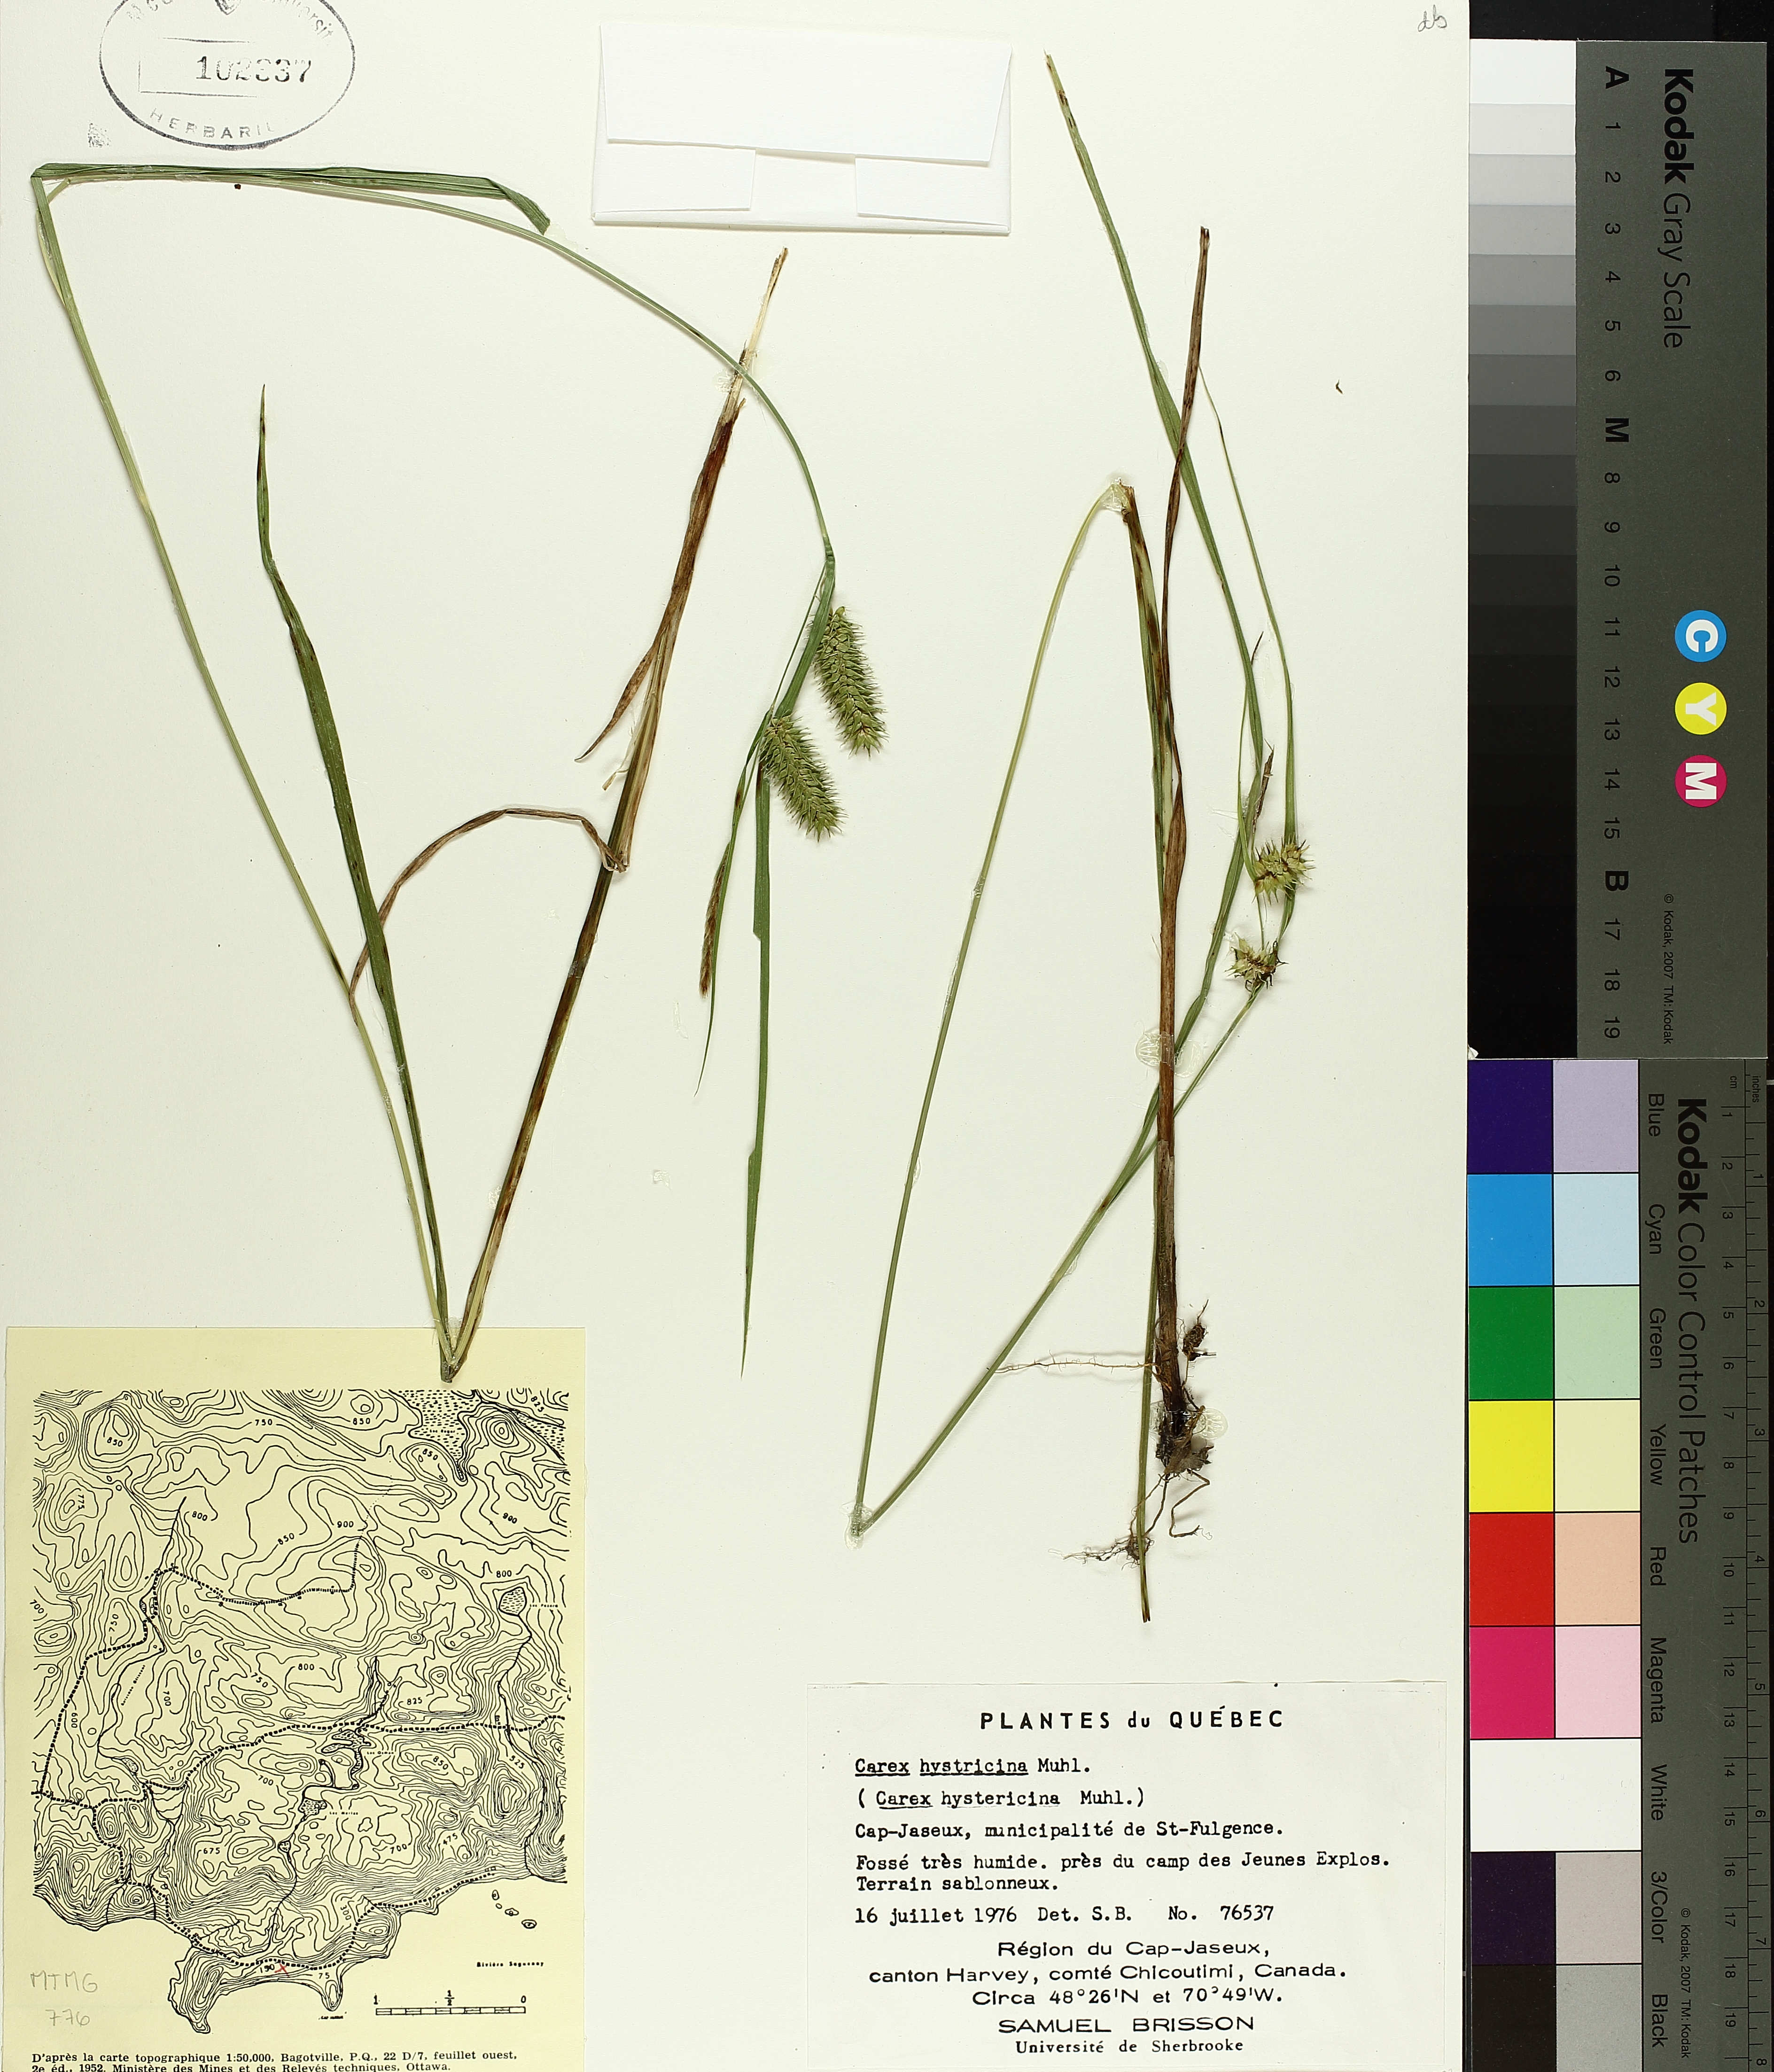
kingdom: Plantae
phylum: Tracheophyta
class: Liliopsida
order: Poales
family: Cyperaceae
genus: Carex
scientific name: Carex hystericina
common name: Bottlebrush sedge
